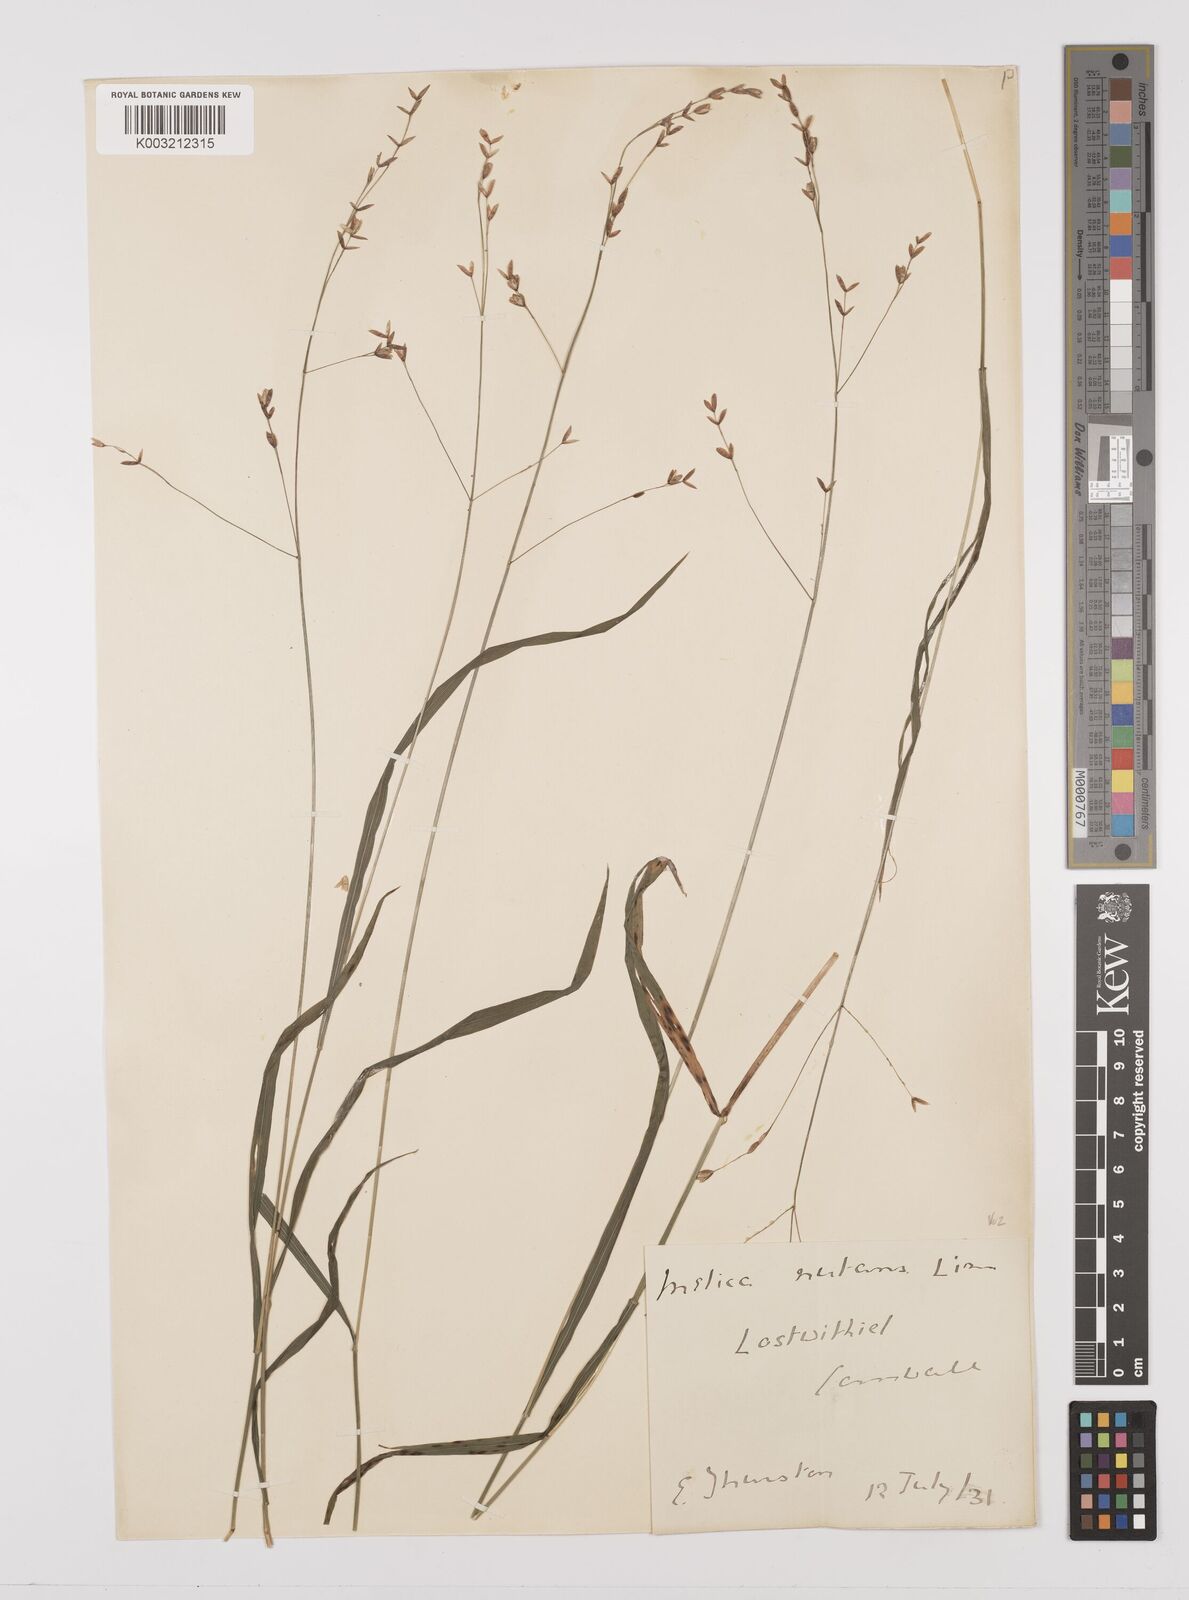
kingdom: Plantae
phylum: Tracheophyta
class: Liliopsida
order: Poales
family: Poaceae
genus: Melica
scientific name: Melica uniflora
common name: Wood melick
